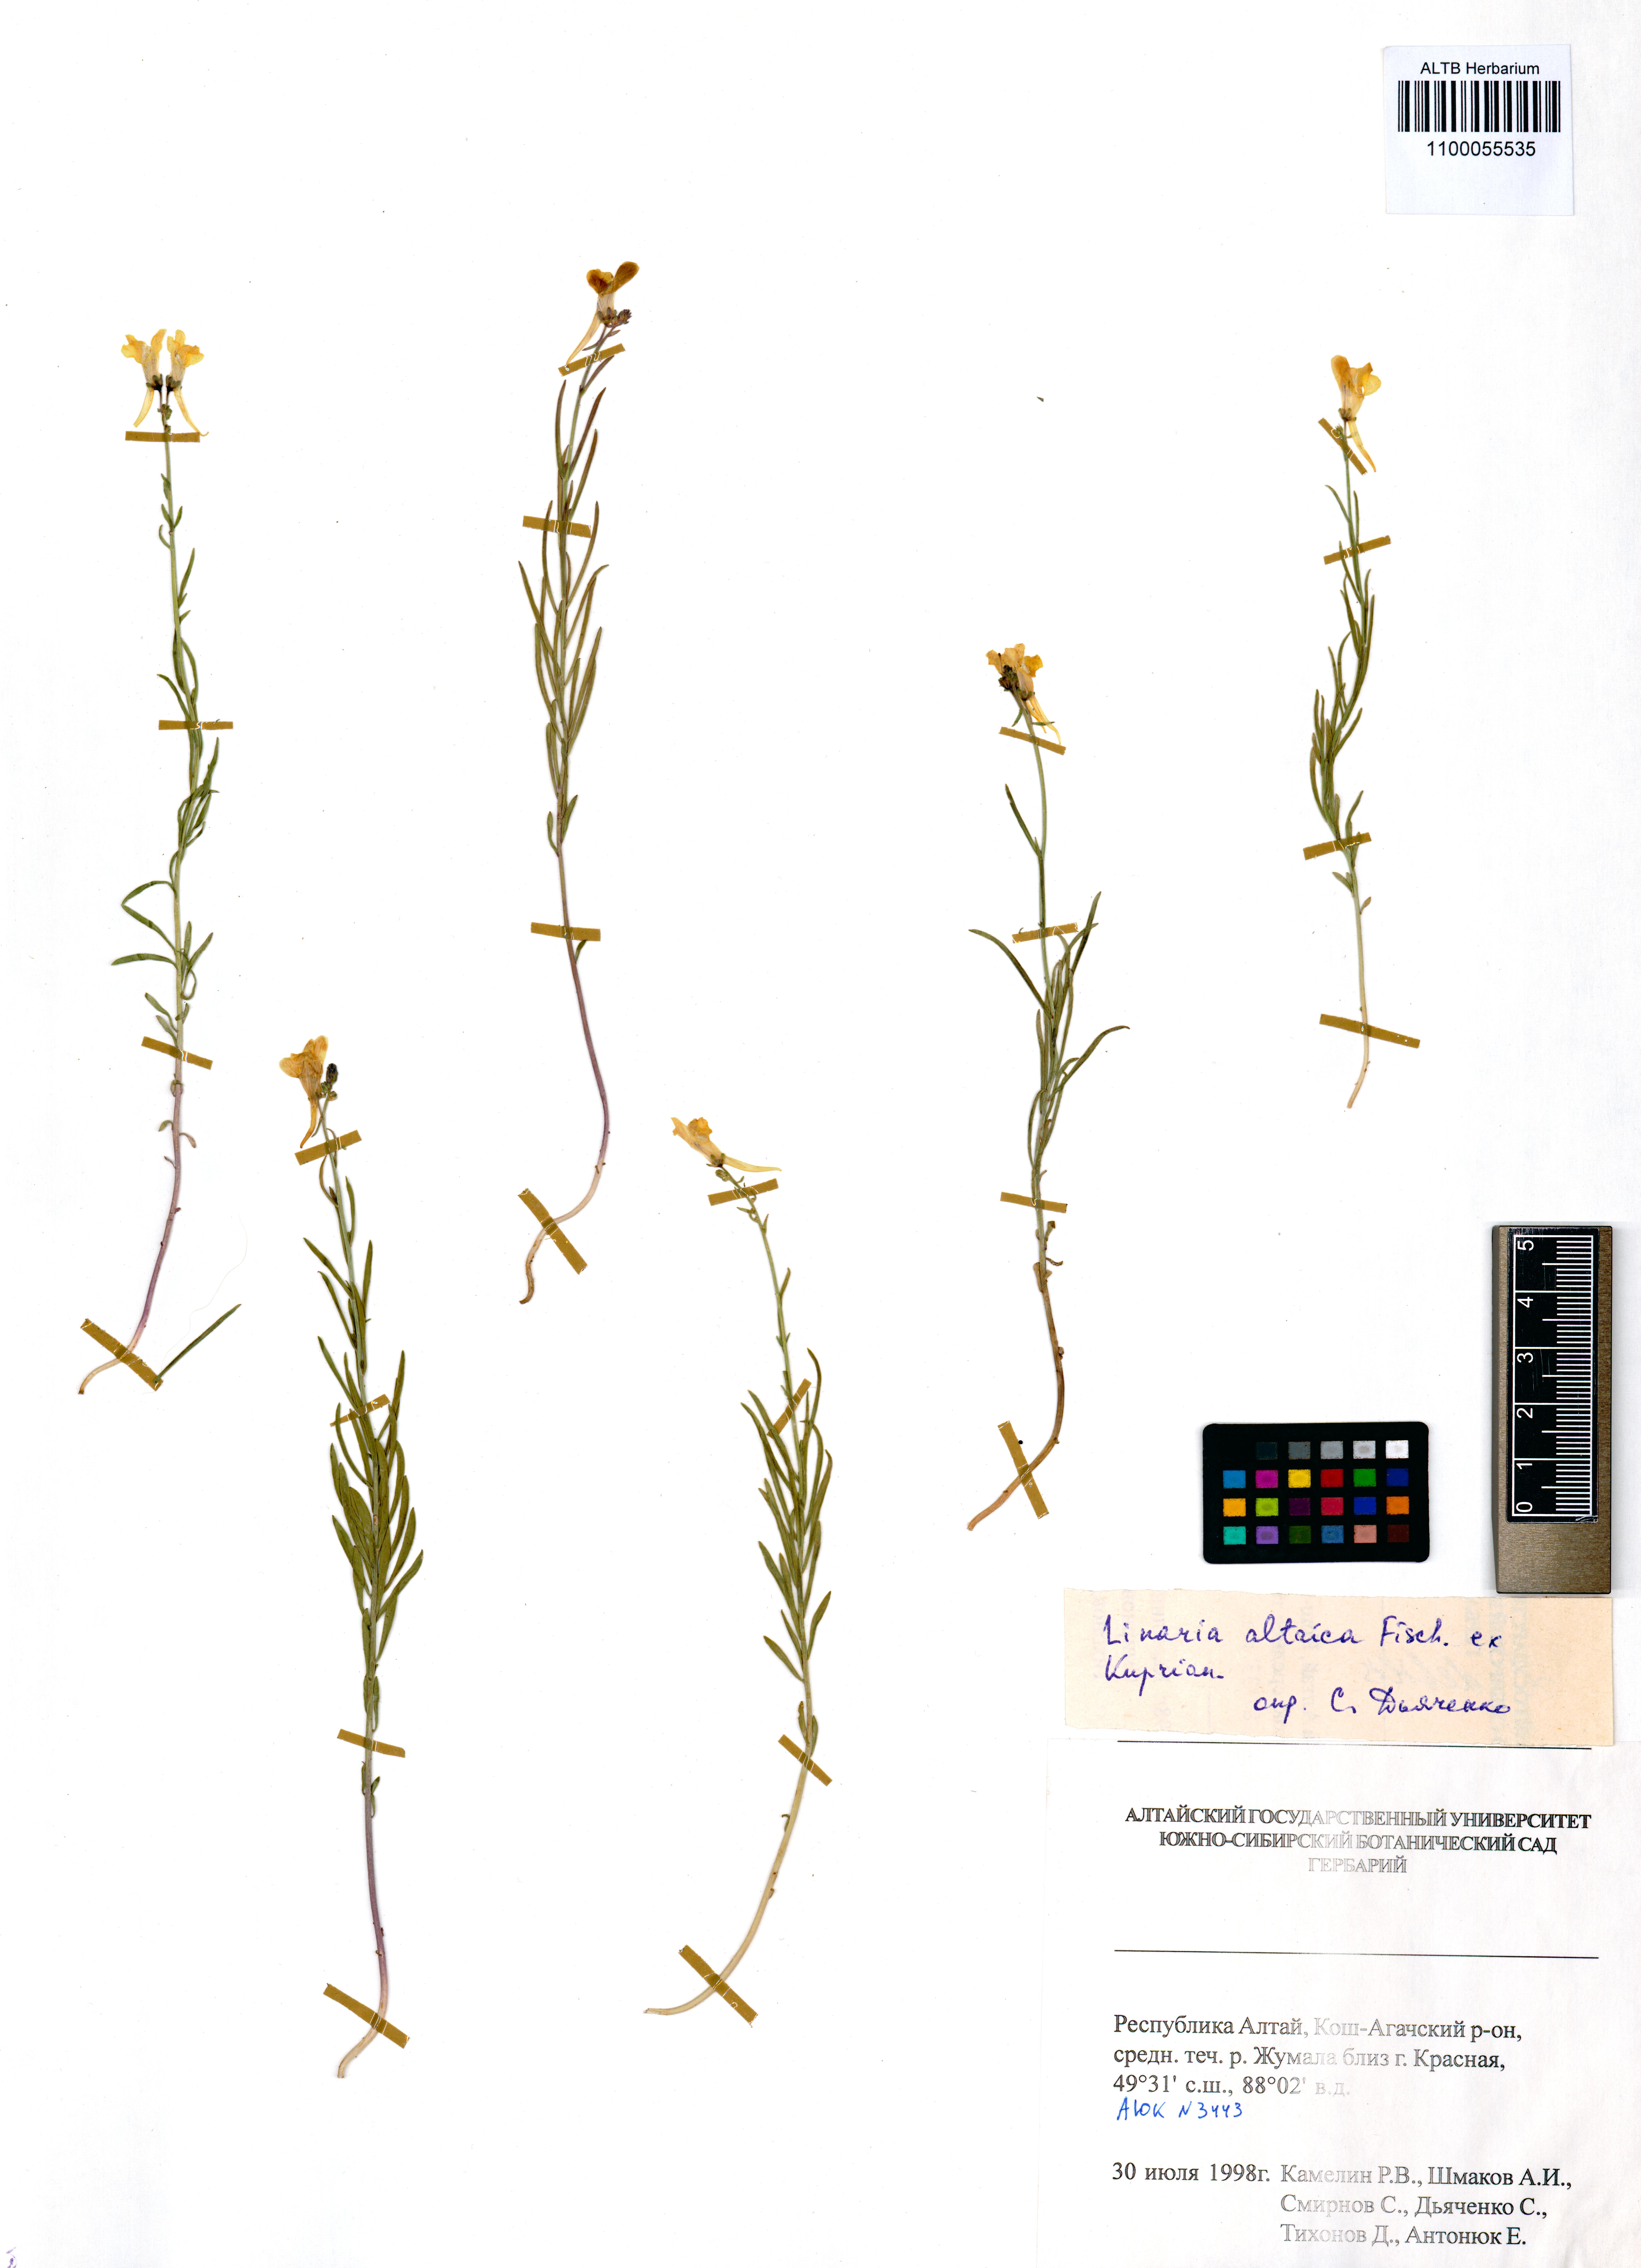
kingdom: Plantae
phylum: Tracheophyta
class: Magnoliopsida
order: Lamiales
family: Plantaginaceae
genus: Linaria
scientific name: Linaria altaica
